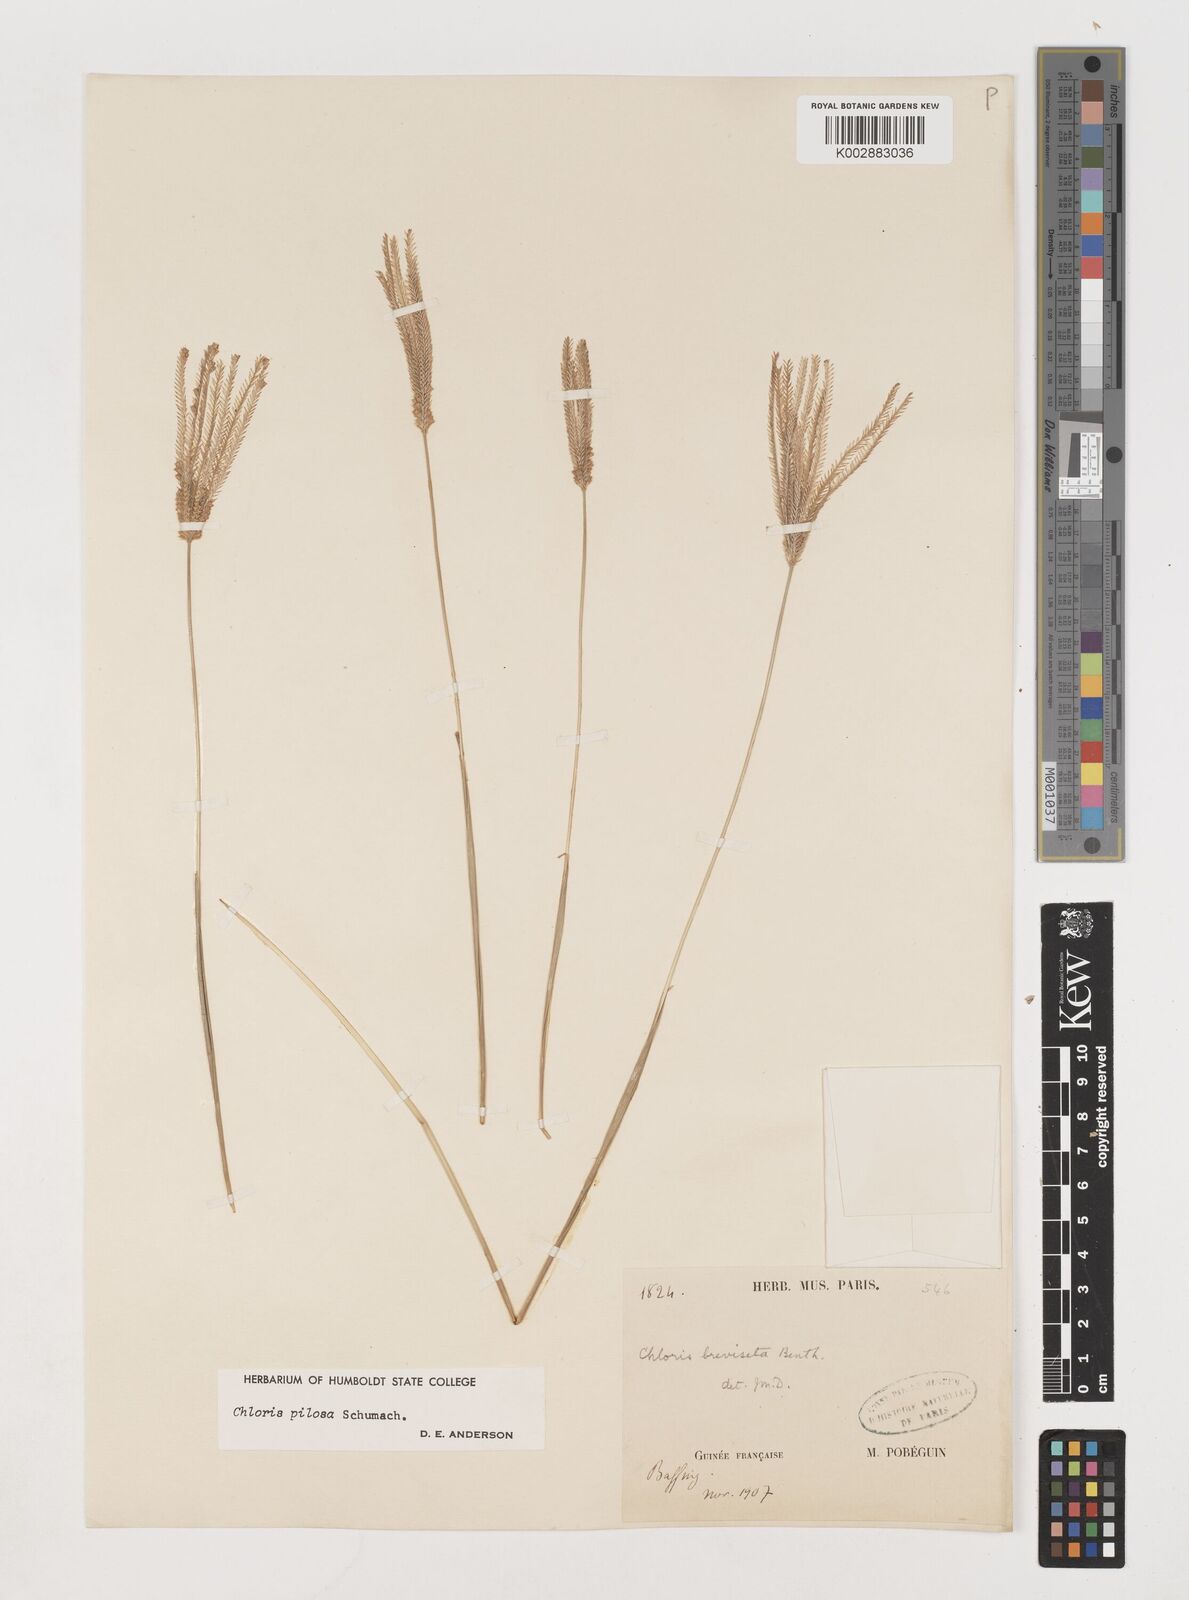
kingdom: Plantae
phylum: Tracheophyta
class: Liliopsida
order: Poales
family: Poaceae
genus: Chloris
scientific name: Chloris pilosa
